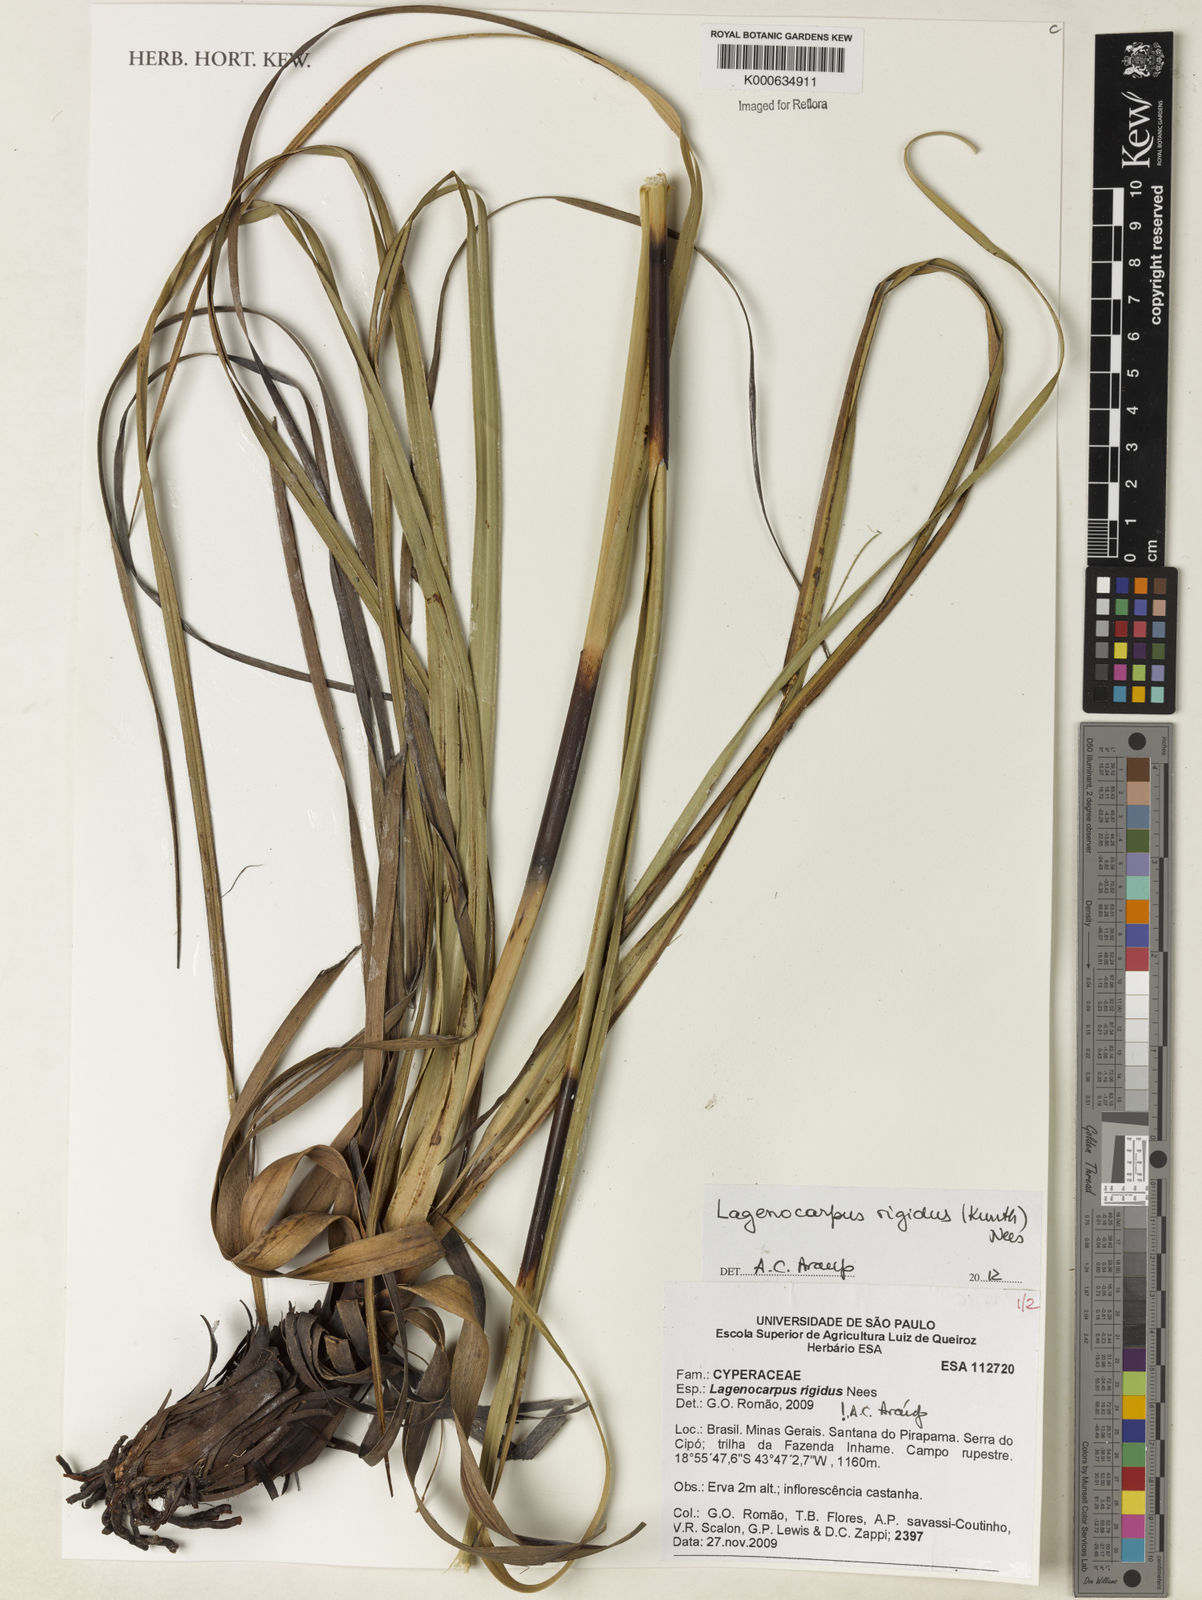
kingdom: Plantae
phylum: Tracheophyta
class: Liliopsida
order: Poales
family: Cyperaceae
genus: Lagenocarpus
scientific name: Lagenocarpus rigidus
